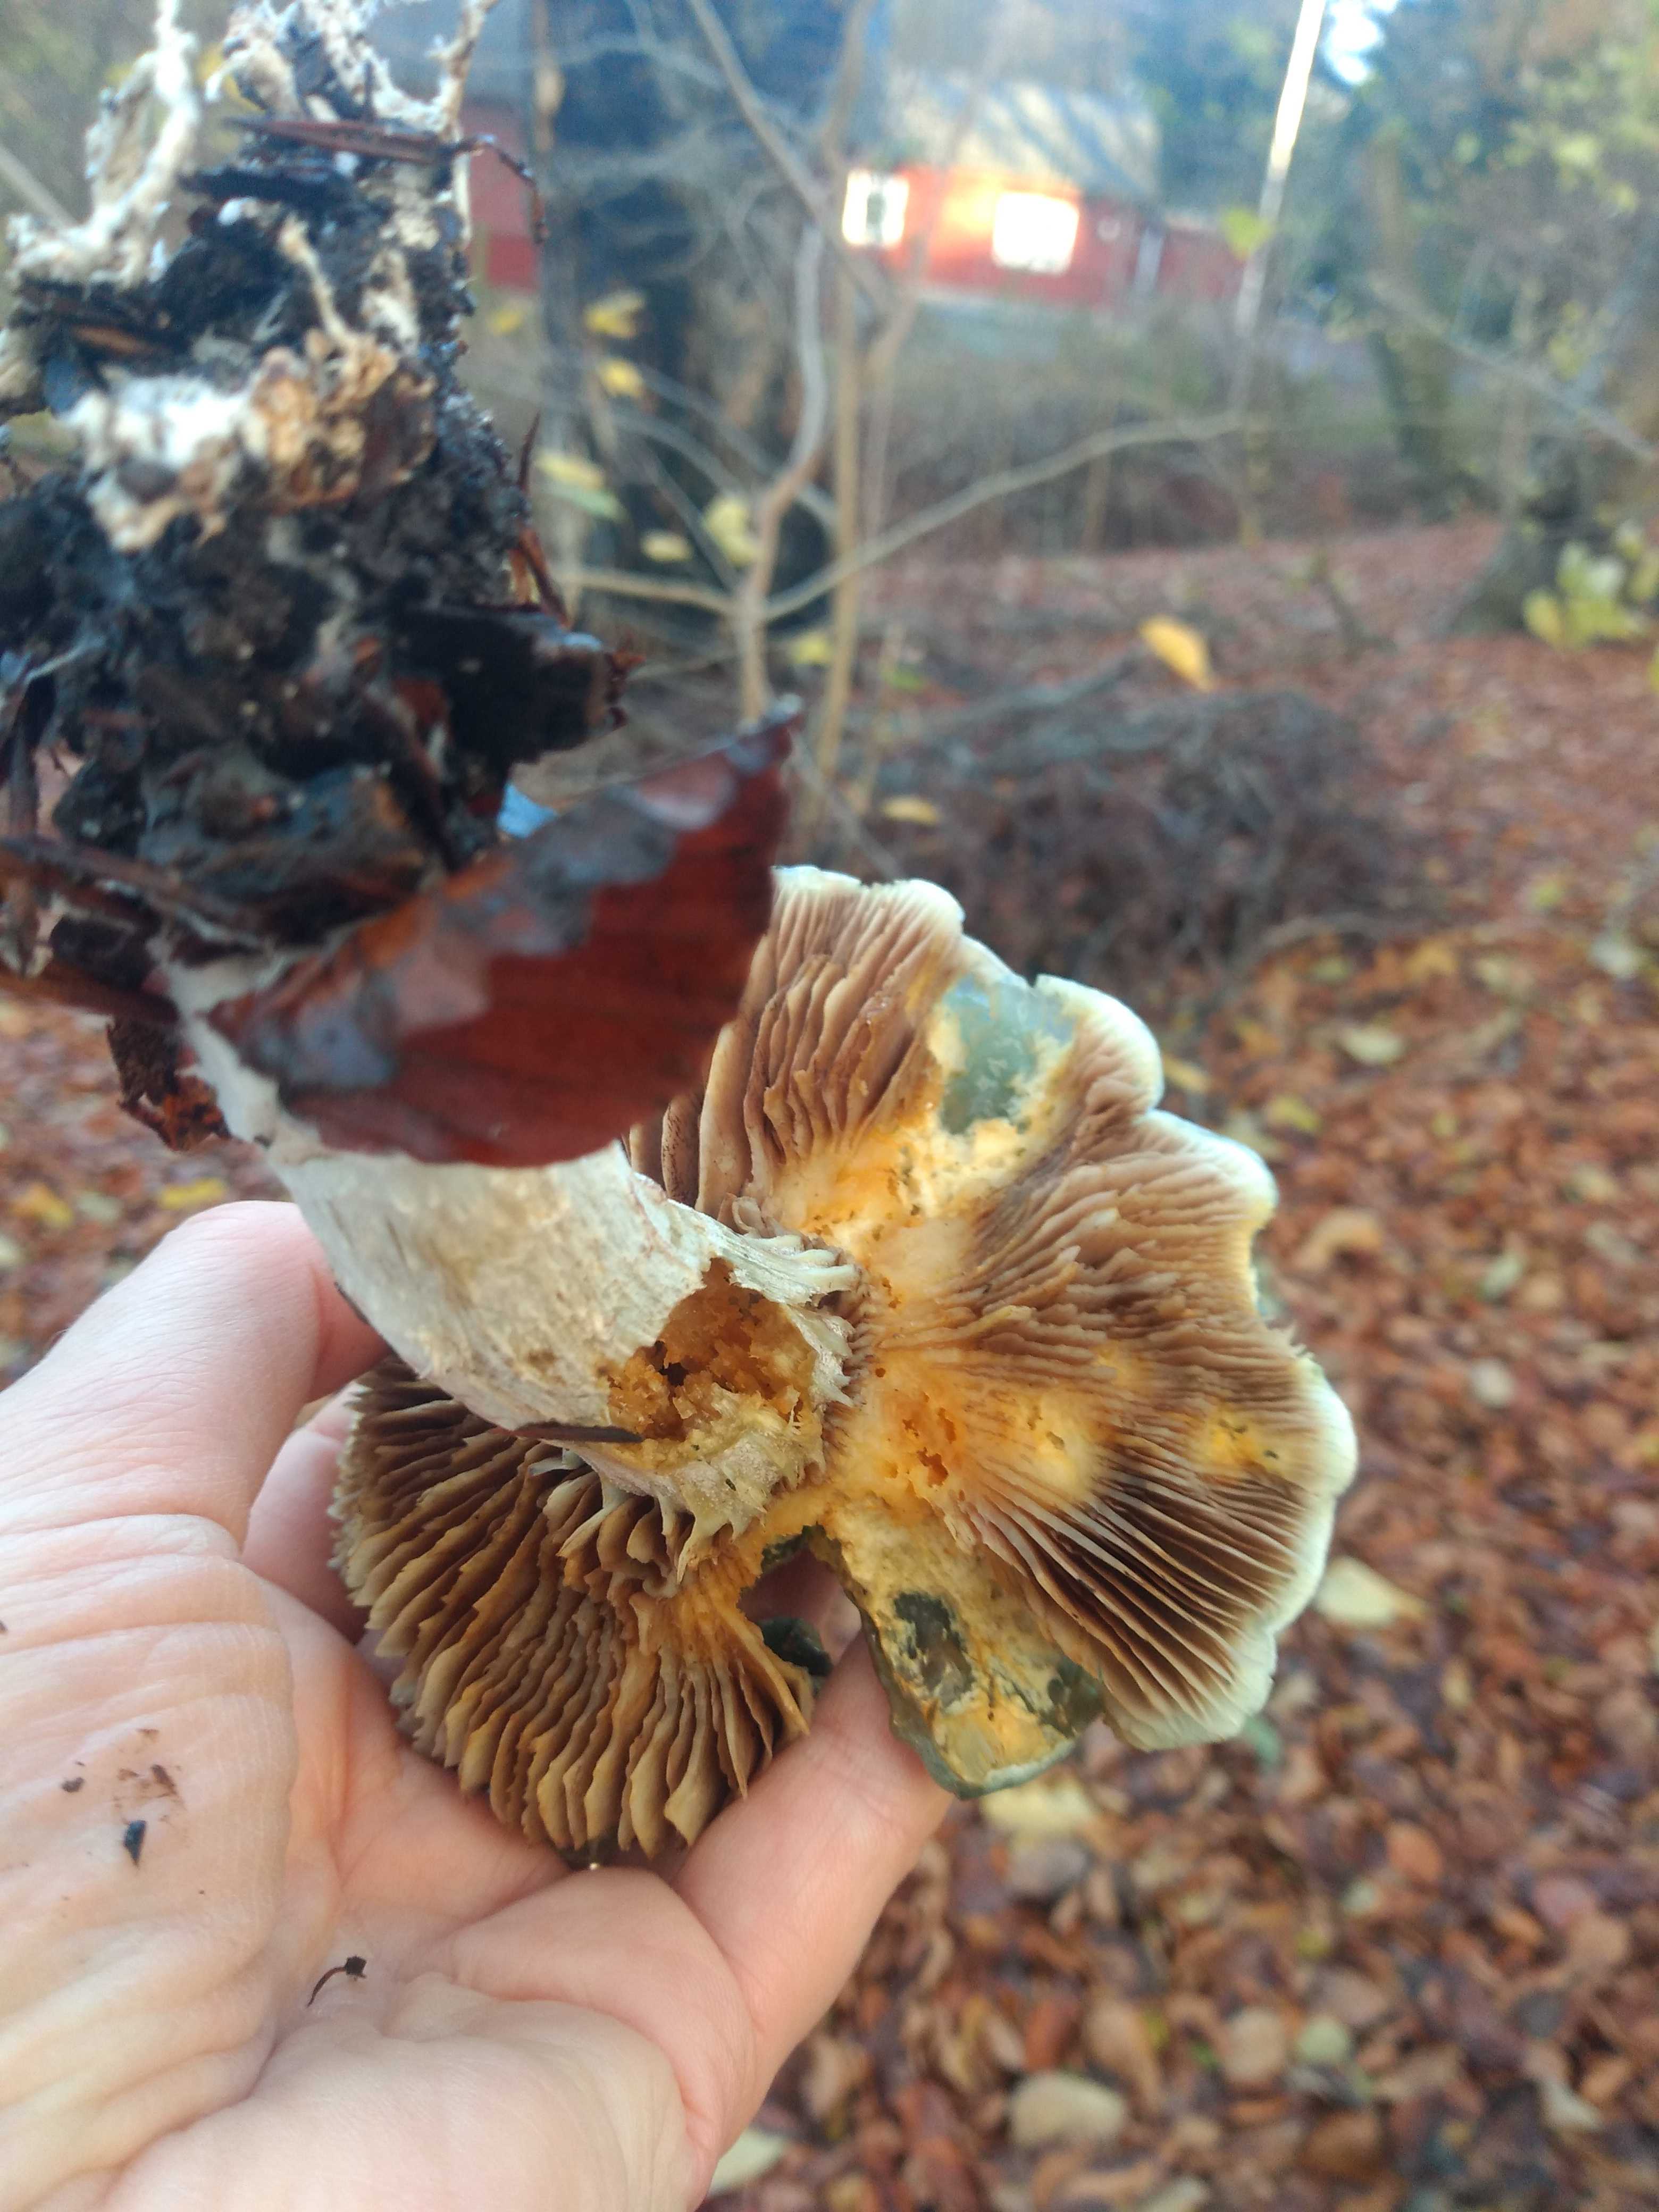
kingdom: Fungi
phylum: Basidiomycota
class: Agaricomycetes
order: Agaricales
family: Strophariaceae
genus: Stropharia
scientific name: Stropharia
